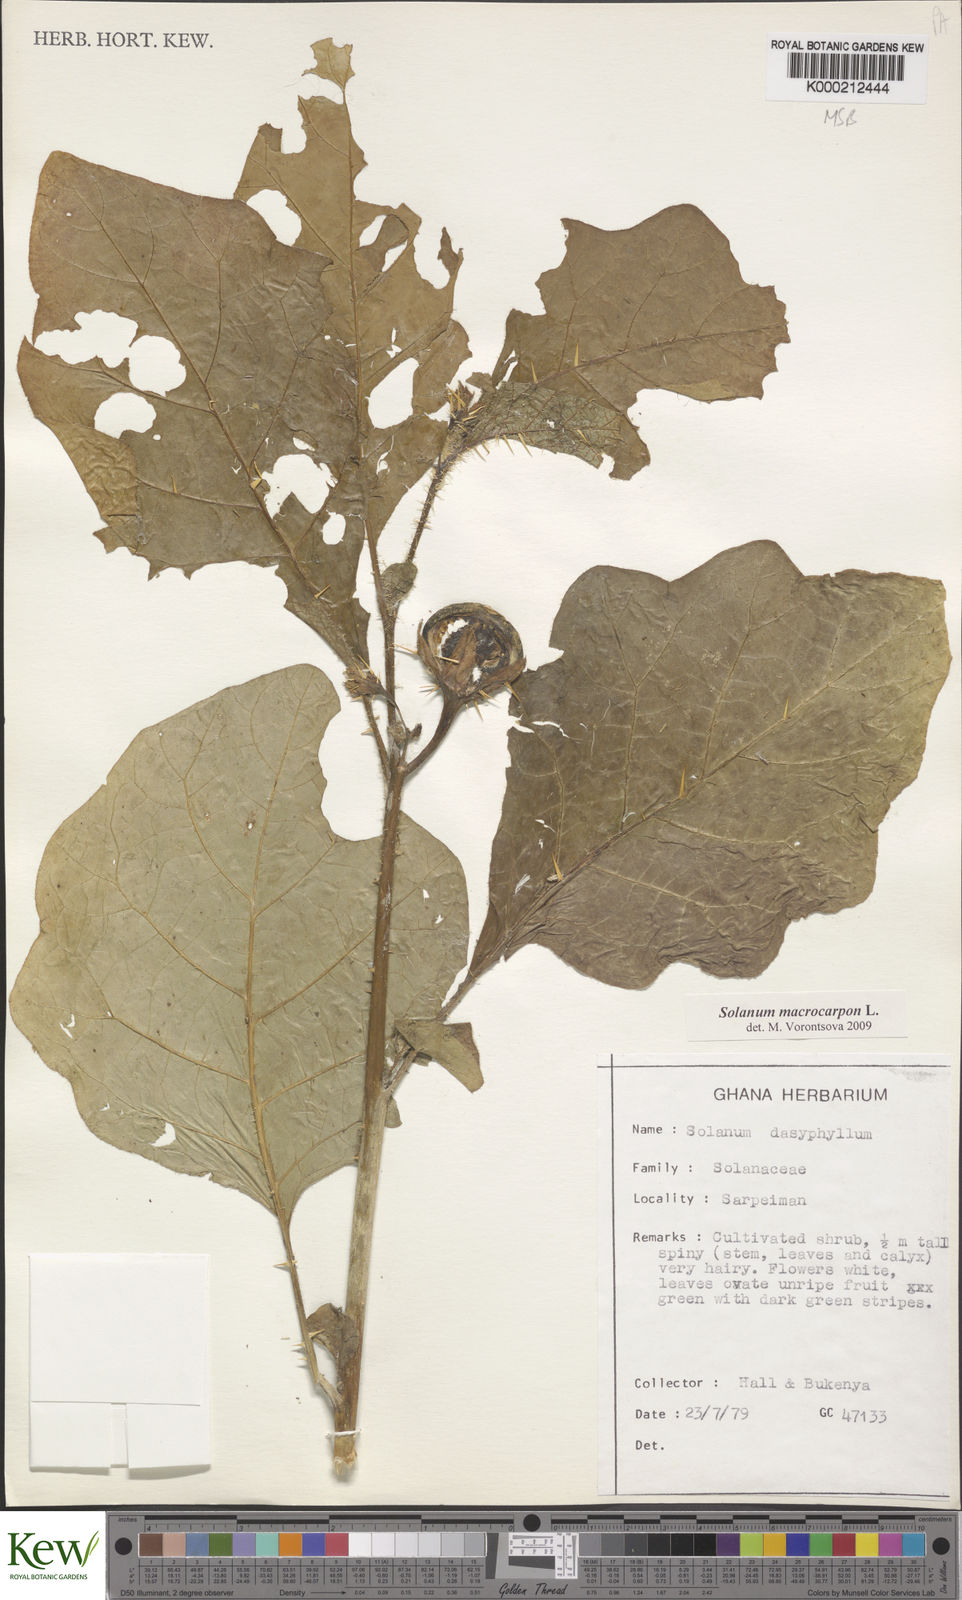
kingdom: Plantae
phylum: Tracheophyta
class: Magnoliopsida
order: Solanales
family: Solanaceae
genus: Solanum
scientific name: Solanum macrocarpon
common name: African eggplant
